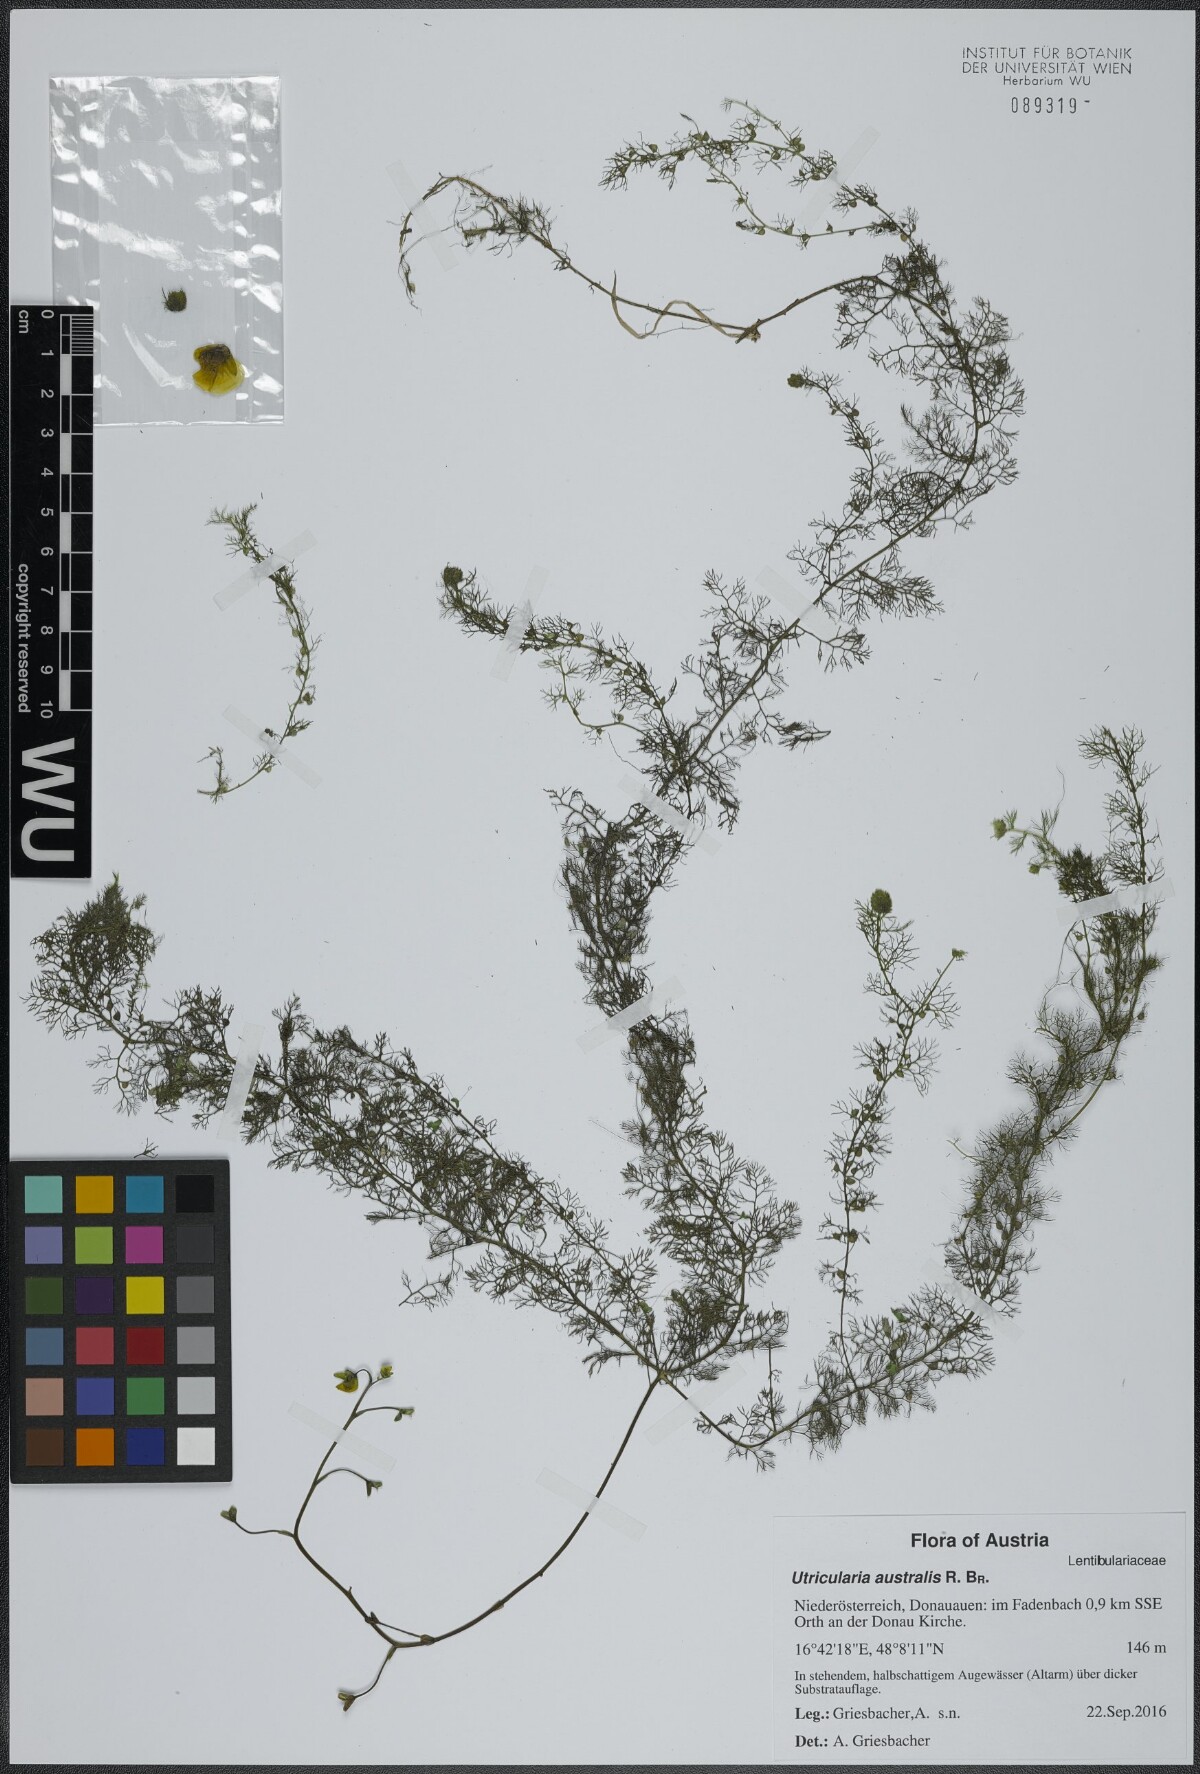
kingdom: Plantae
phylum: Tracheophyta
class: Magnoliopsida
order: Lamiales
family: Lentibulariaceae
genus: Utricularia
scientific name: Utricularia australis
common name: Bladderwort
